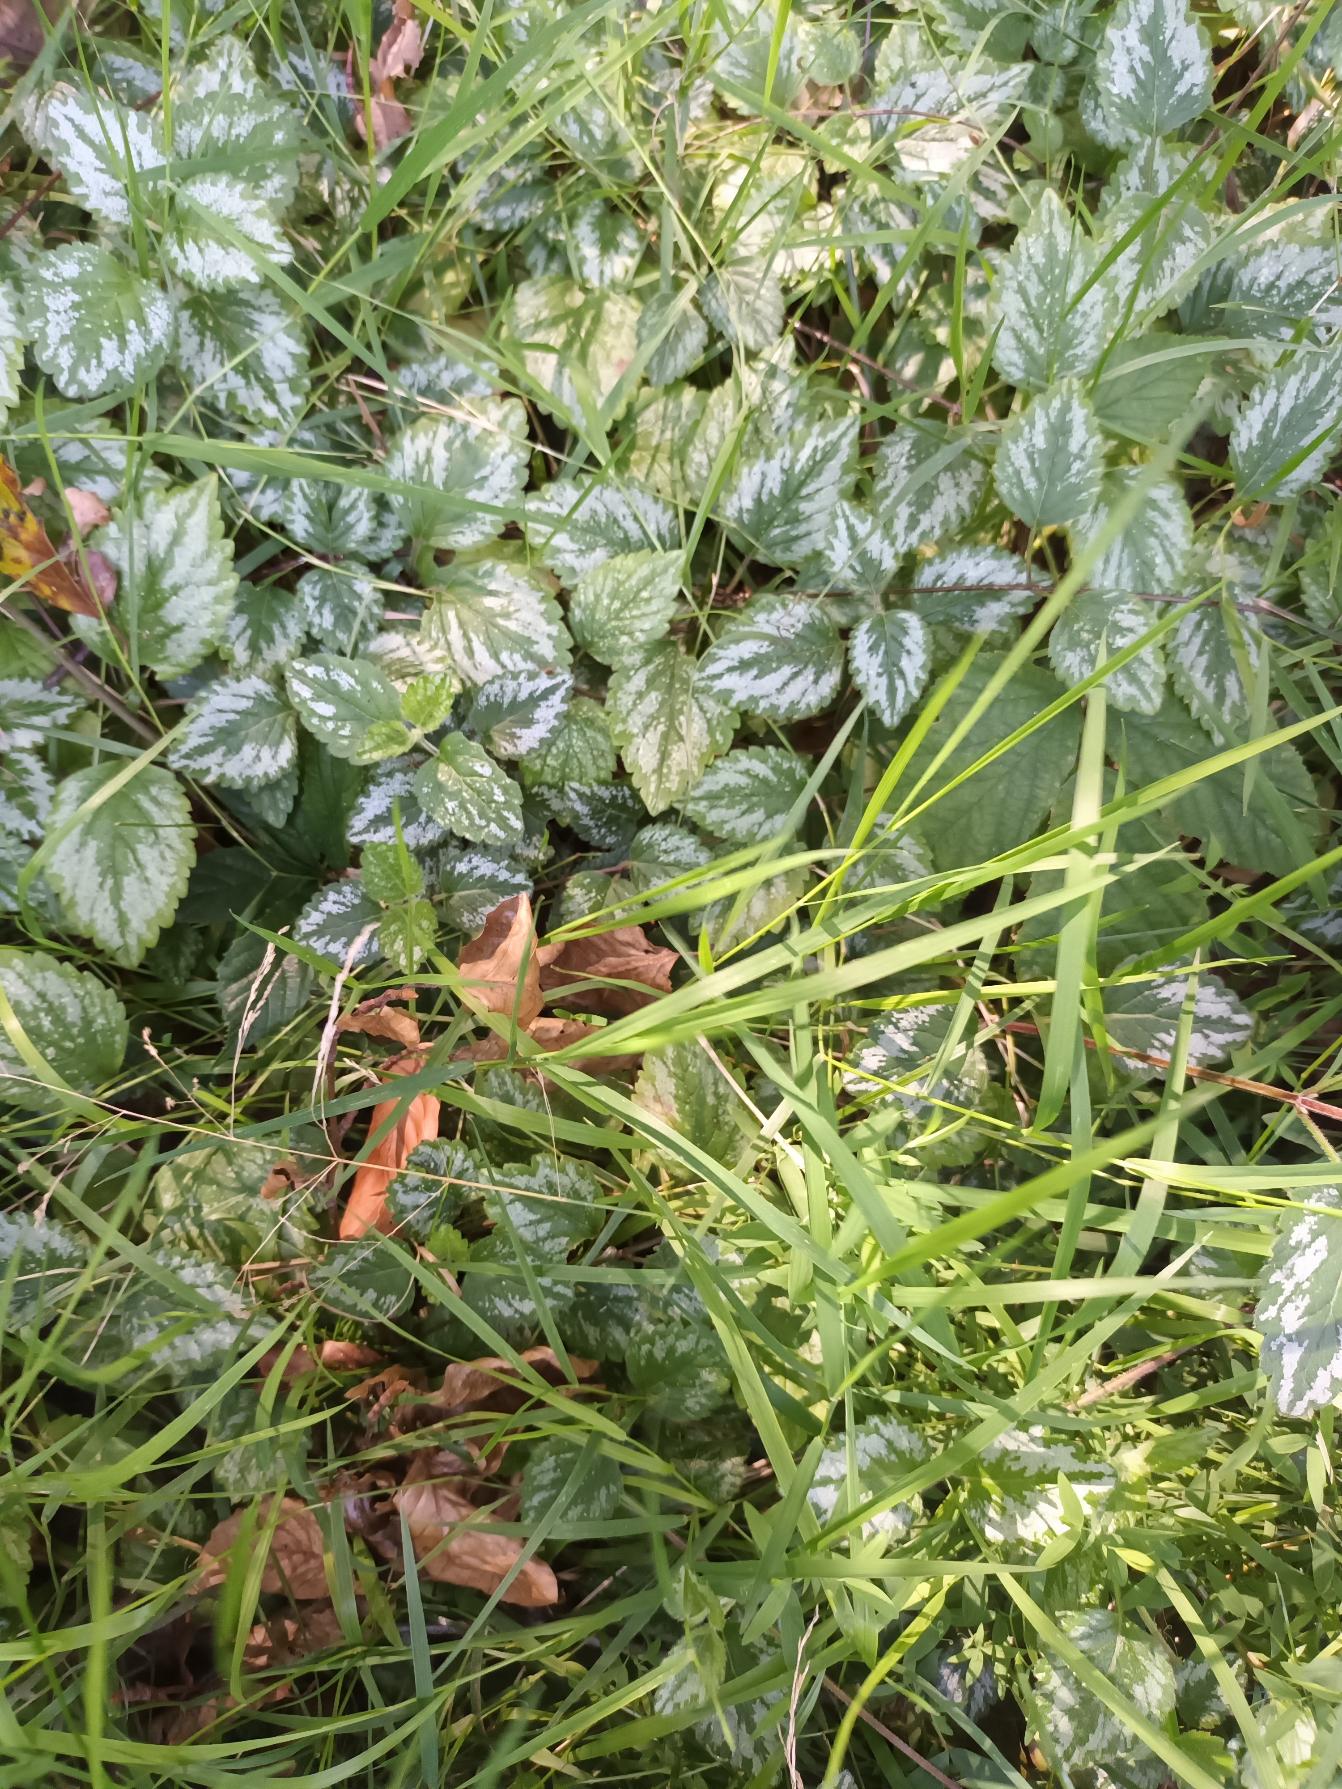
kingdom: Plantae
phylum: Tracheophyta
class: Magnoliopsida
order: Lamiales
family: Lamiaceae
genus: Lamium
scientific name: Lamium galeobdolon
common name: Have-guldnælde
